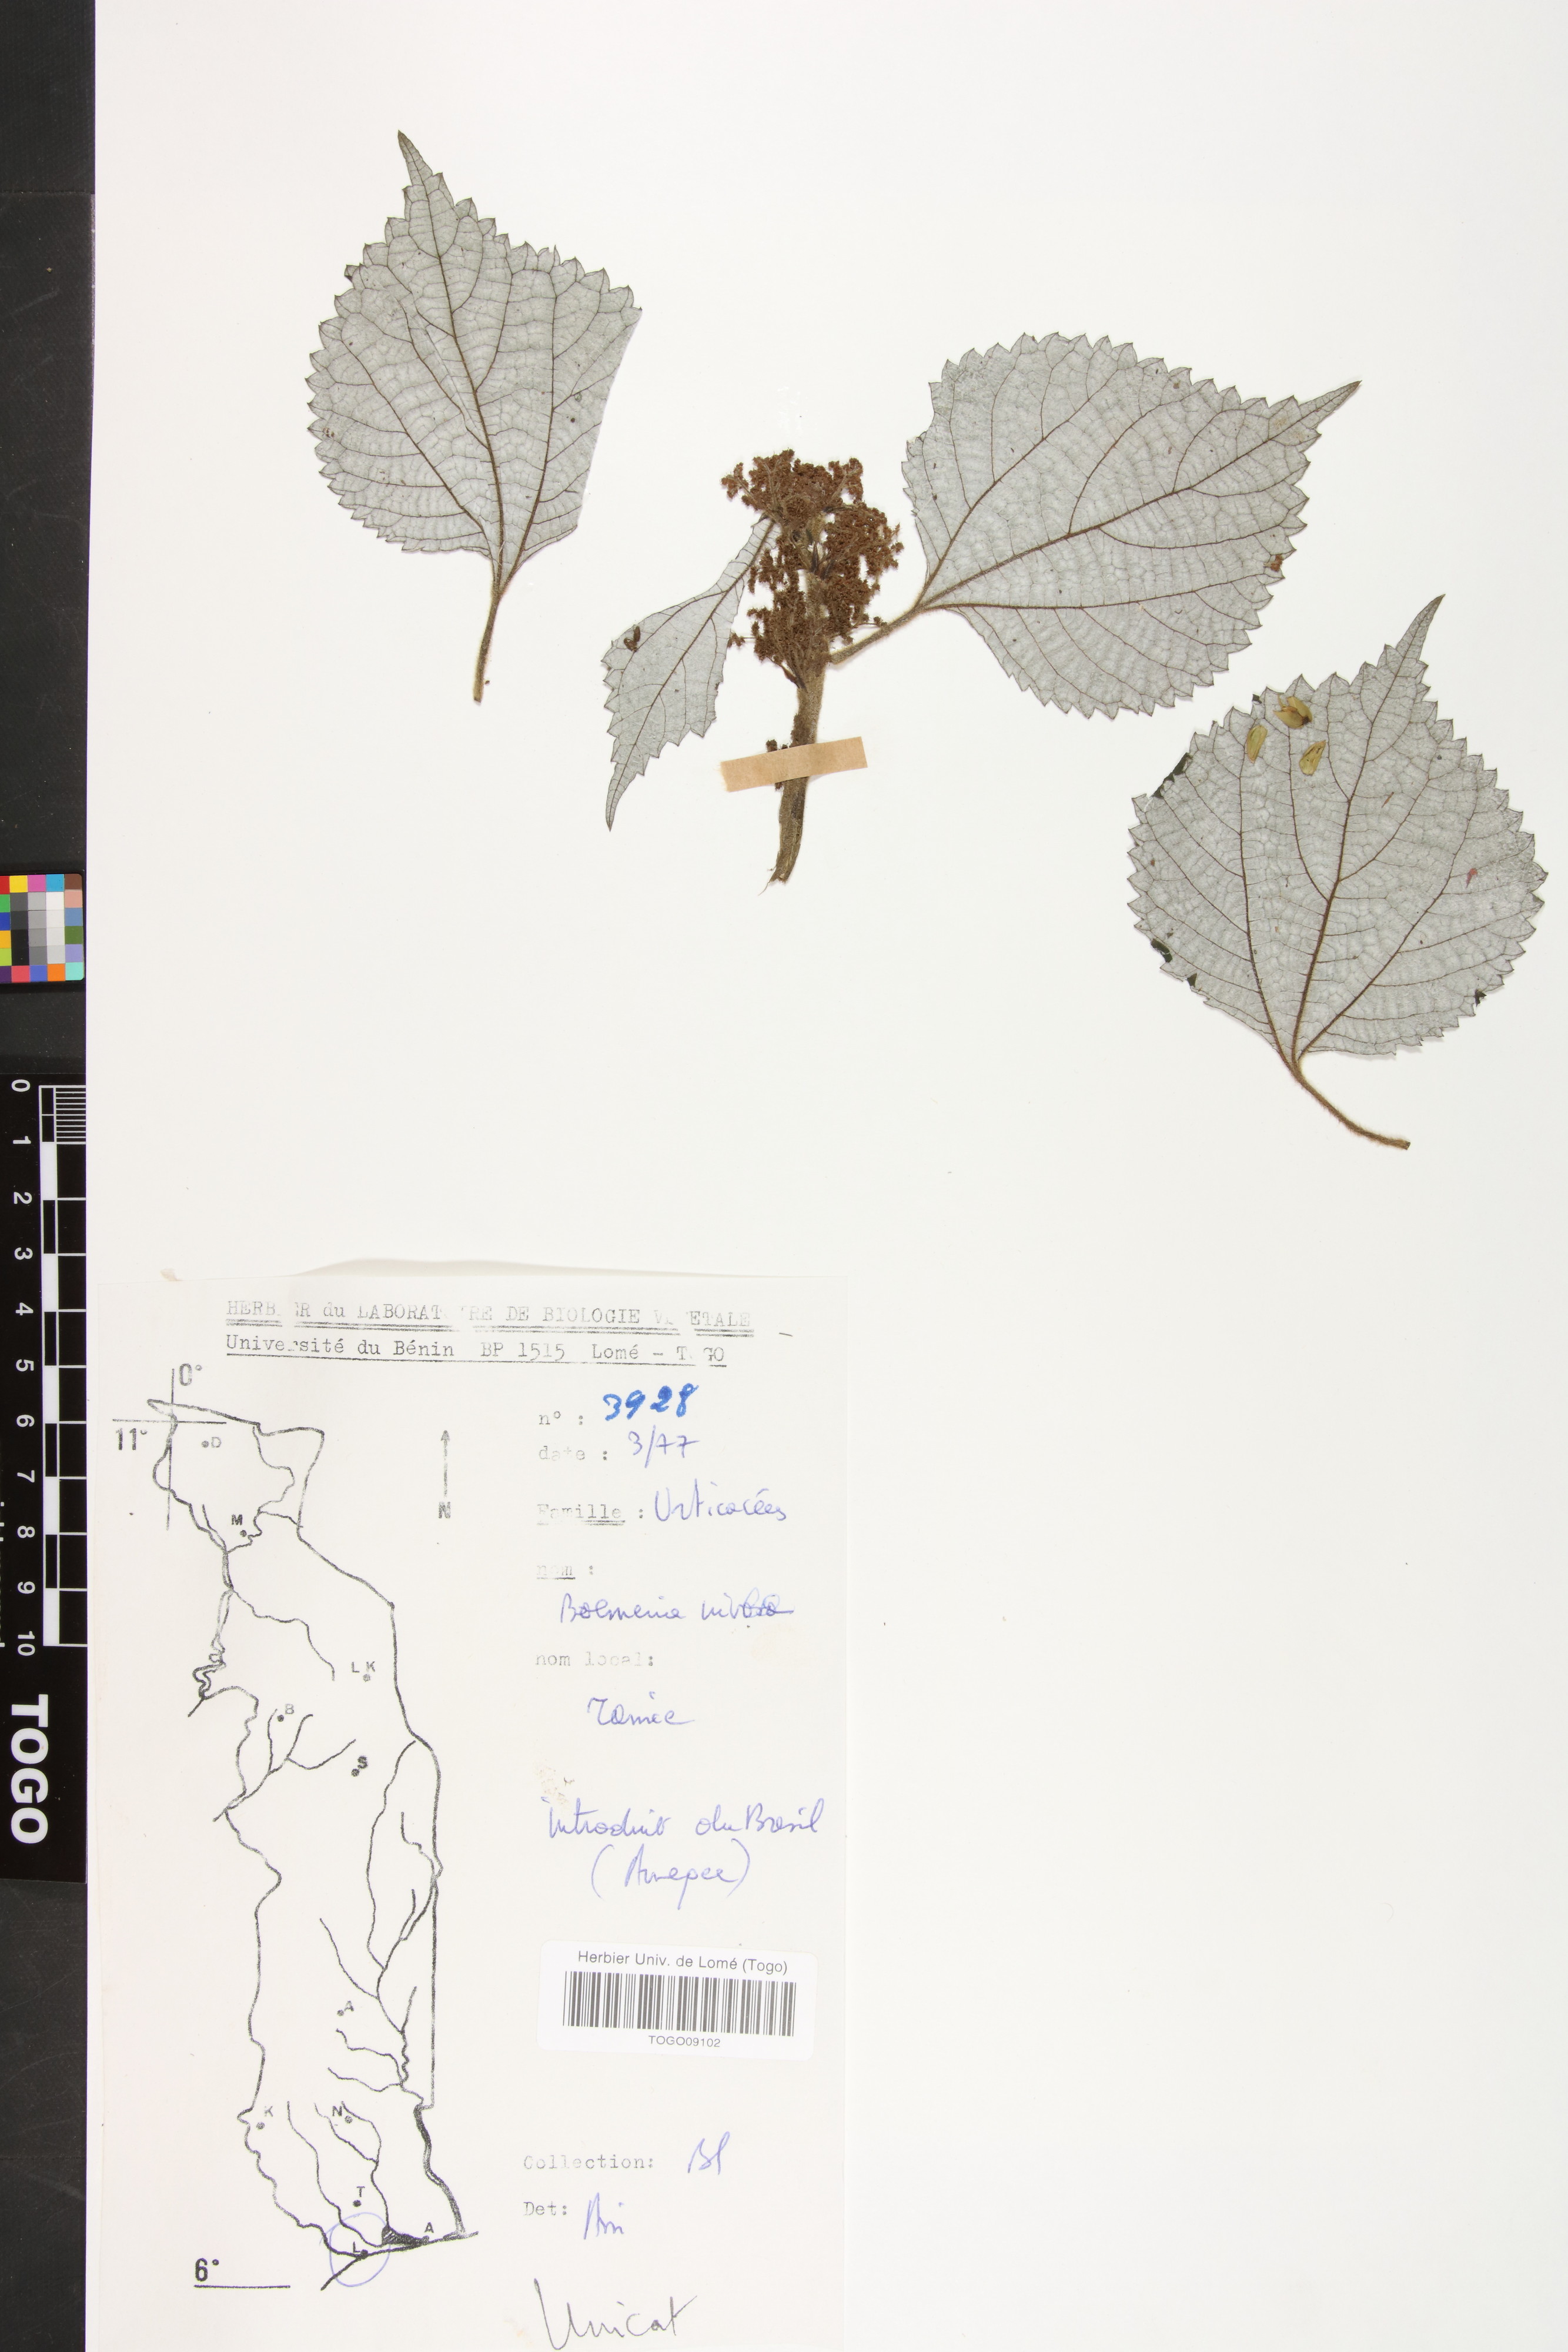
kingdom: Plantae
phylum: Tracheophyta
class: Magnoliopsida
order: Rosales
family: Urticaceae
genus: Boehmeria
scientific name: Boehmeria virgata
